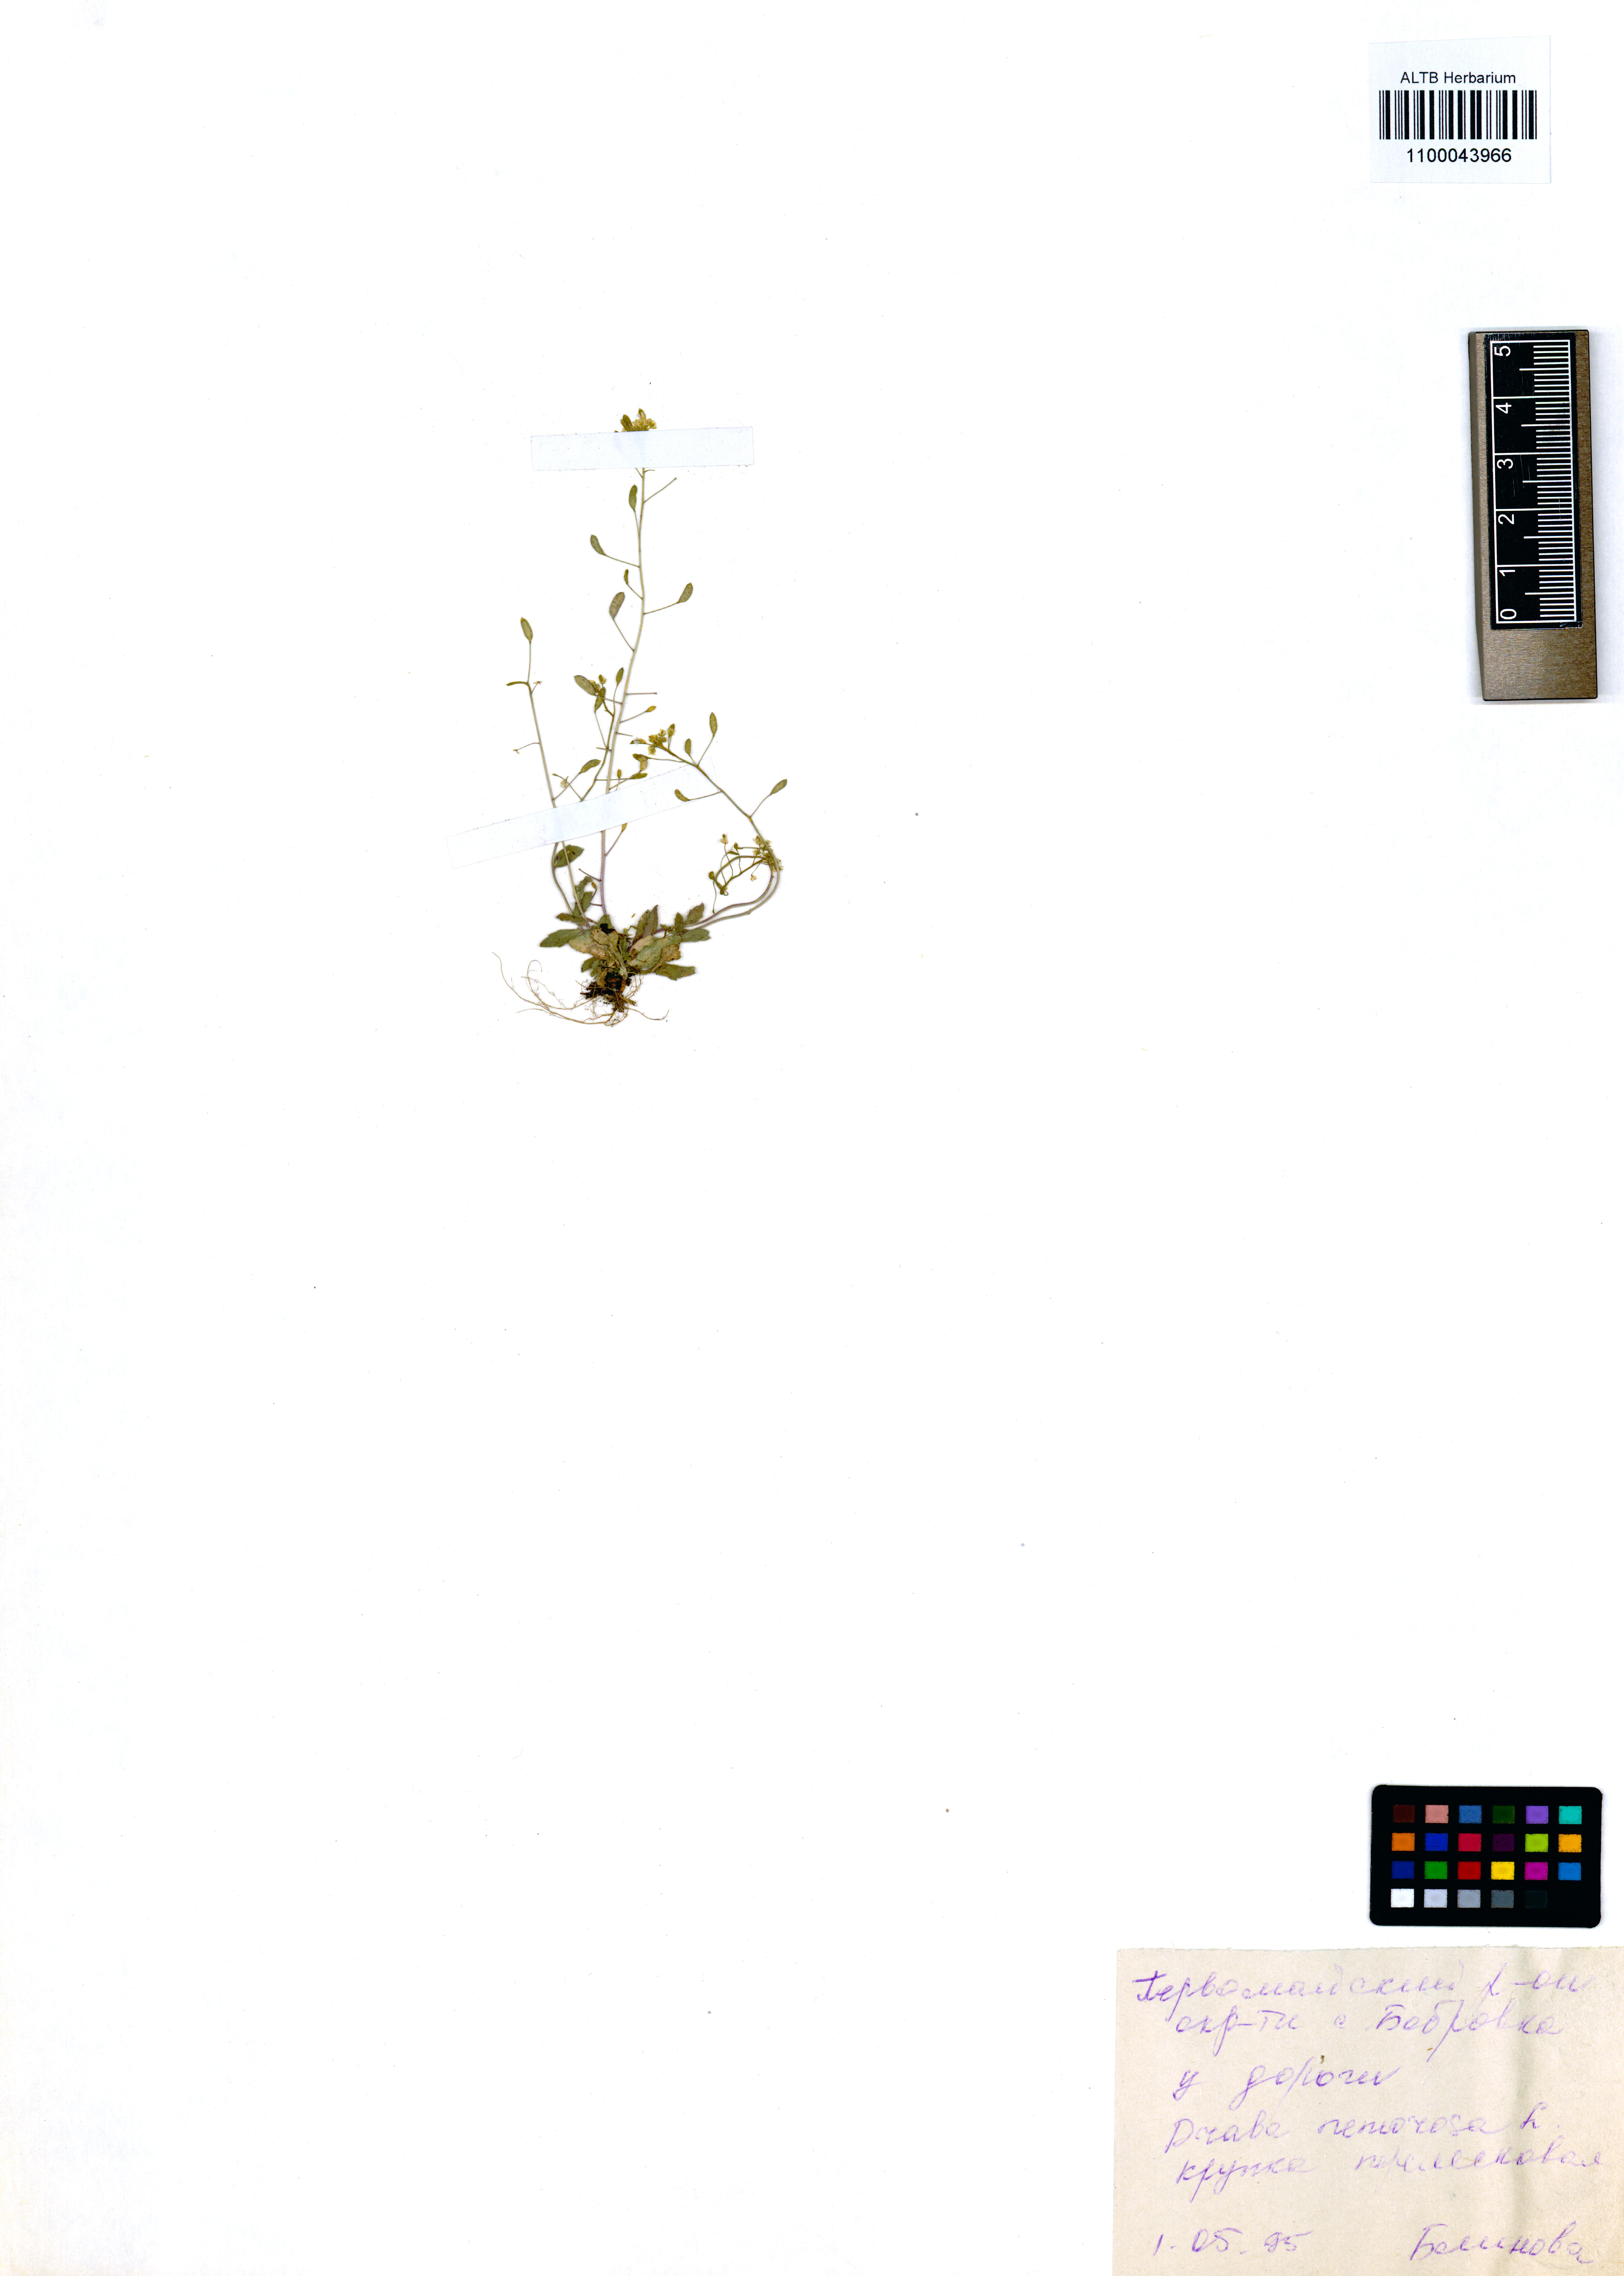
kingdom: Plantae
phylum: Tracheophyta
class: Magnoliopsida
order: Brassicales
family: Brassicaceae
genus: Draba
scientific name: Draba nemorosa
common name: Wood whitlow-grass
